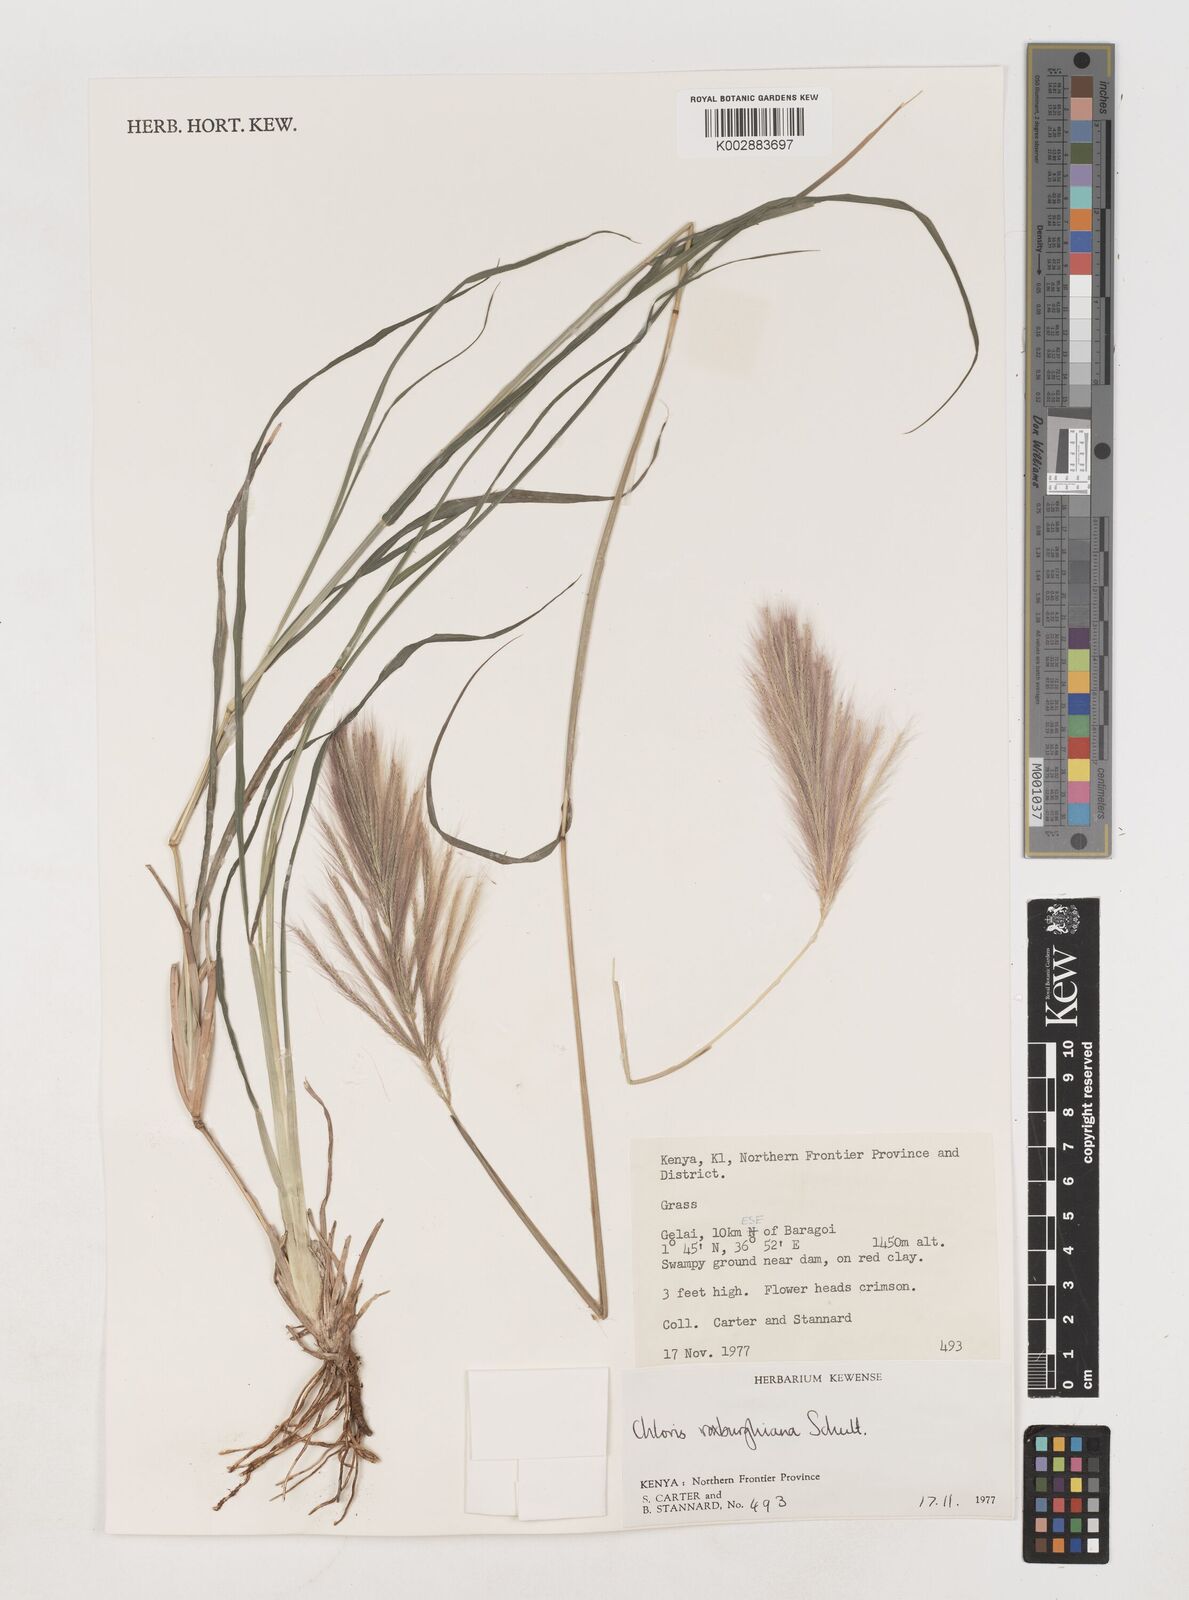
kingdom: Plantae
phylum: Tracheophyta
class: Liliopsida
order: Poales
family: Poaceae
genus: Tetrapogon
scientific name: Tetrapogon roxburghiana
